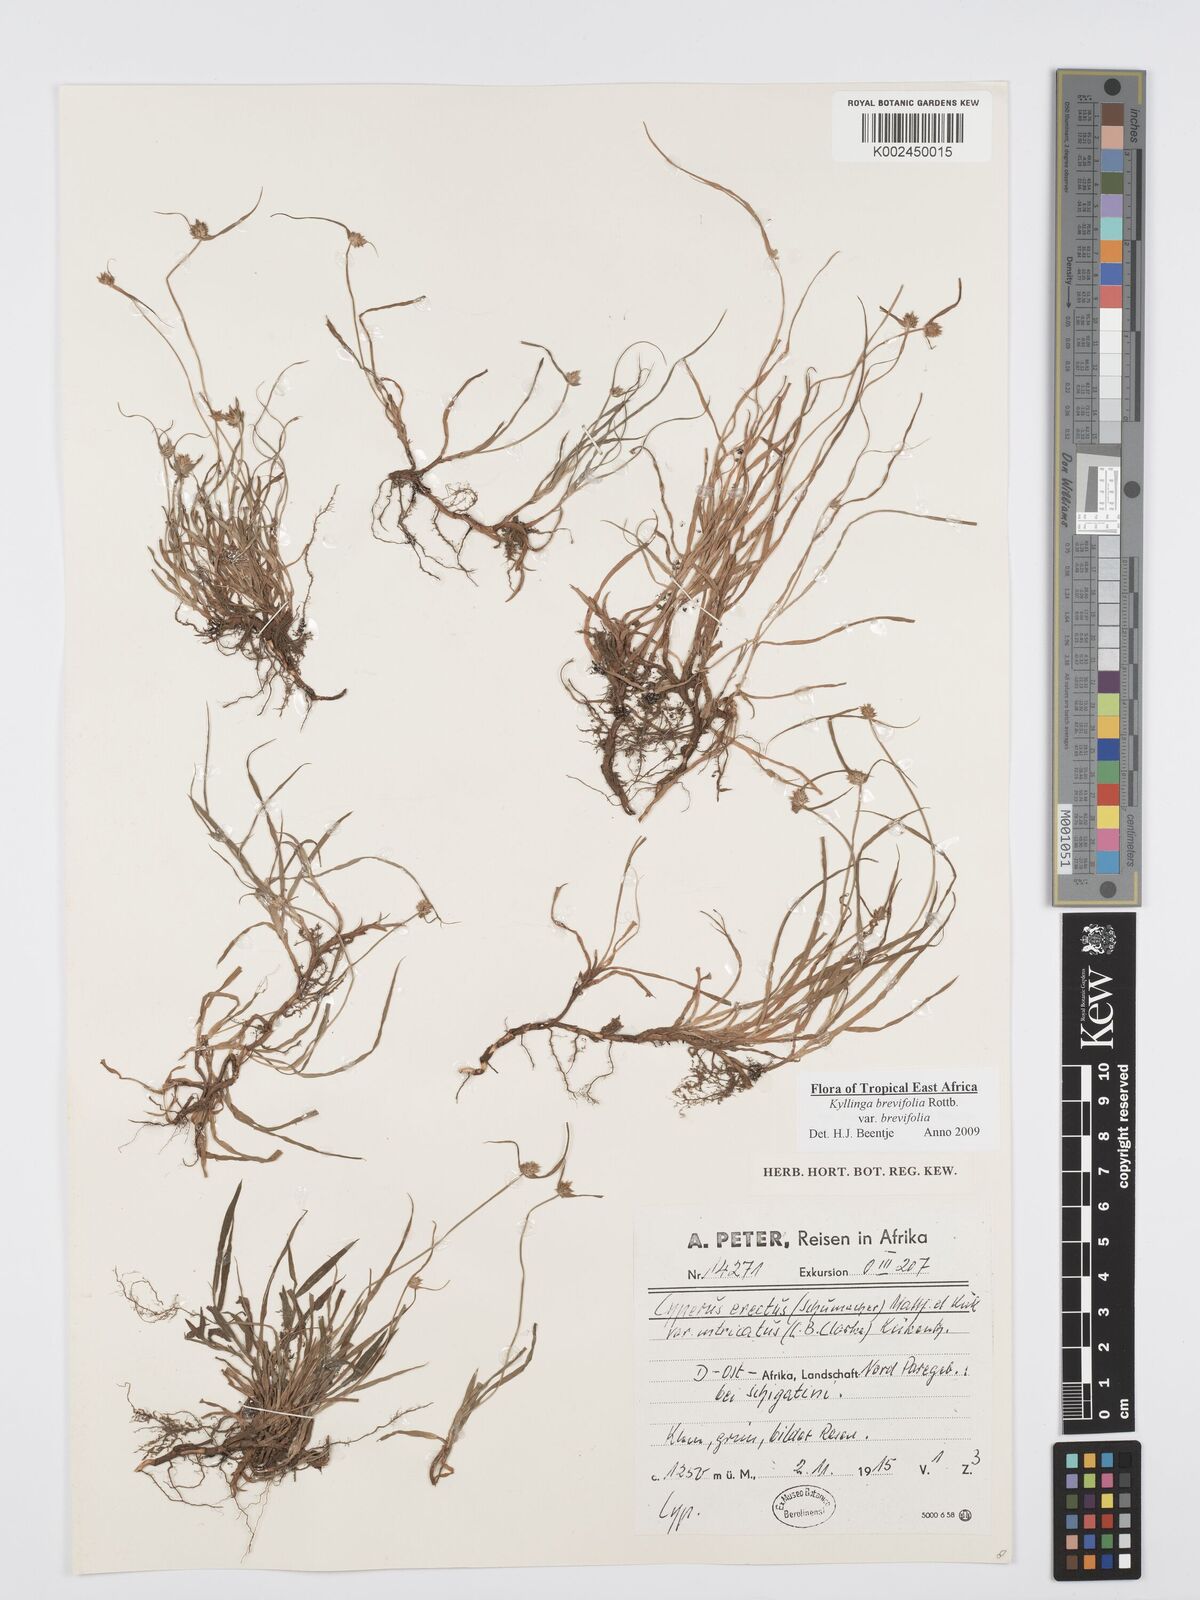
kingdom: Plantae
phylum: Tracheophyta
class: Liliopsida
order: Poales
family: Cyperaceae
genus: Cyperus
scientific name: Cyperus brevifolius
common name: Globe kyllinga
